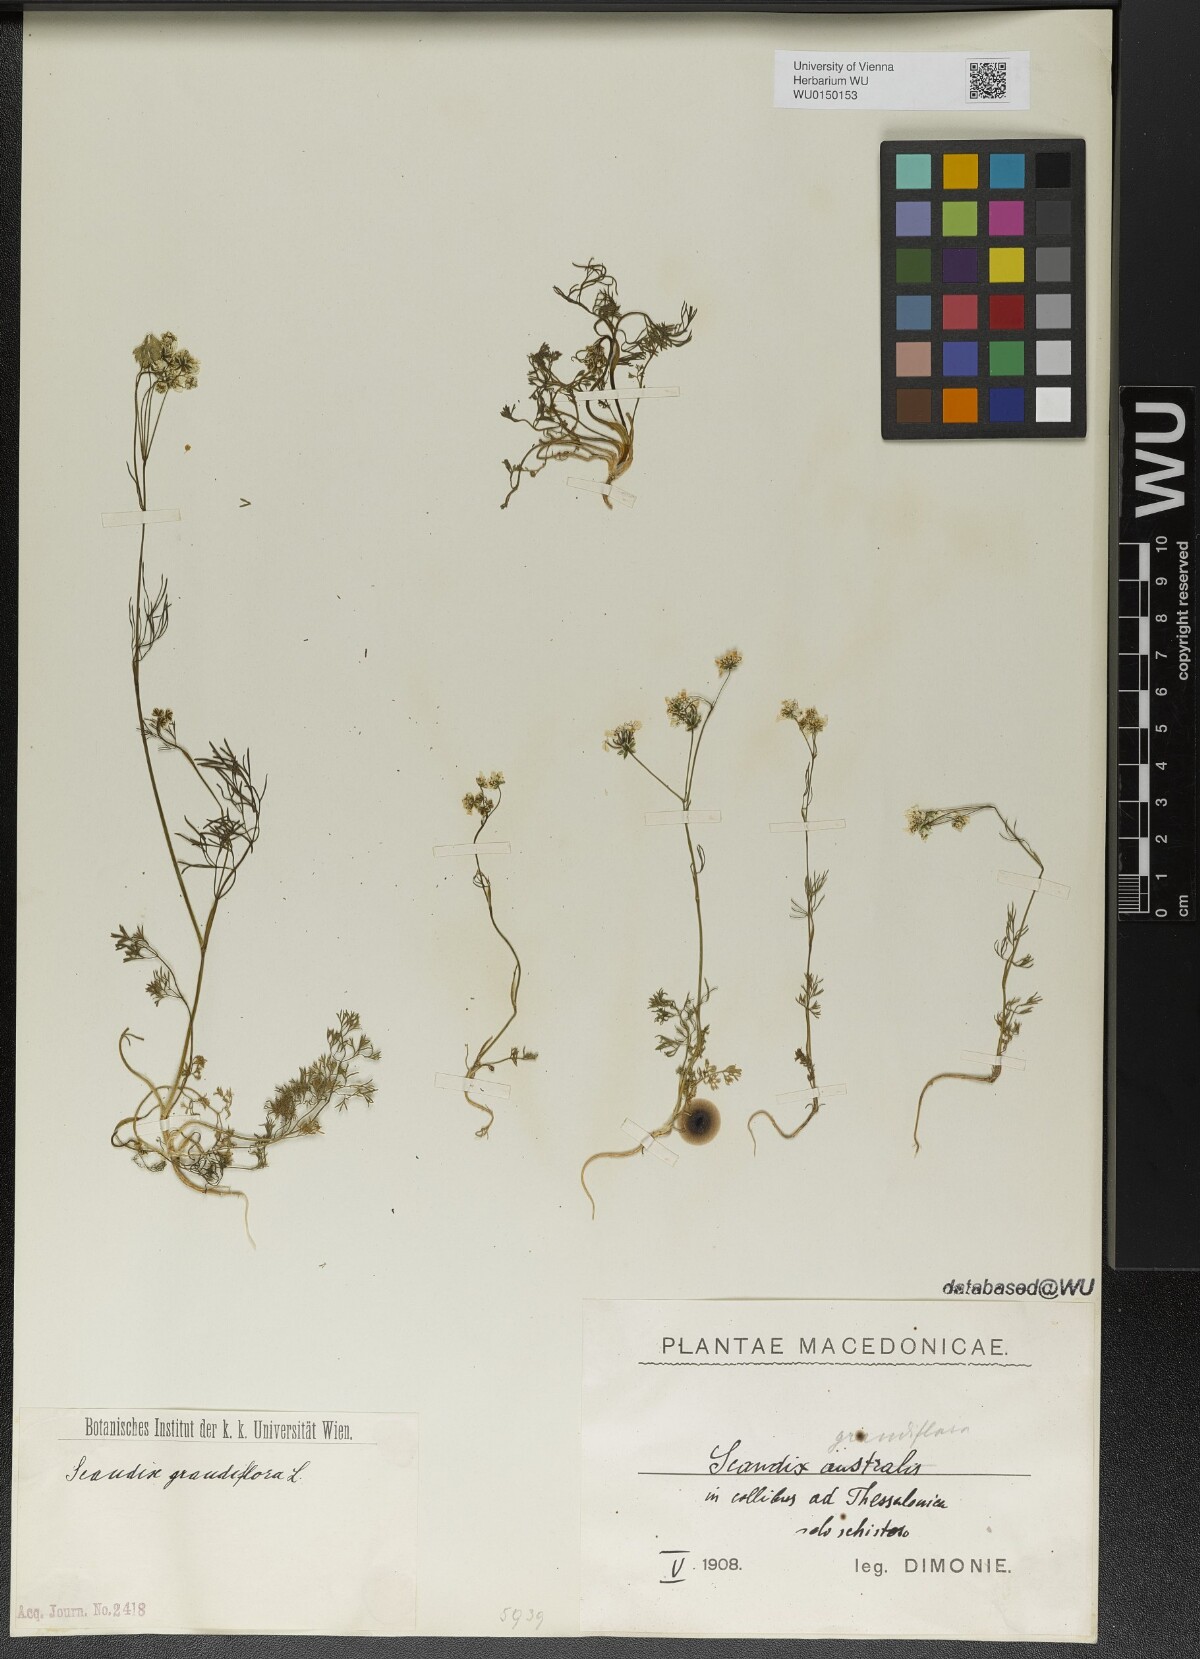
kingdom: Plantae
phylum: Tracheophyta
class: Magnoliopsida
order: Apiales
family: Apiaceae
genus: Scandix
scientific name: Scandix australis
